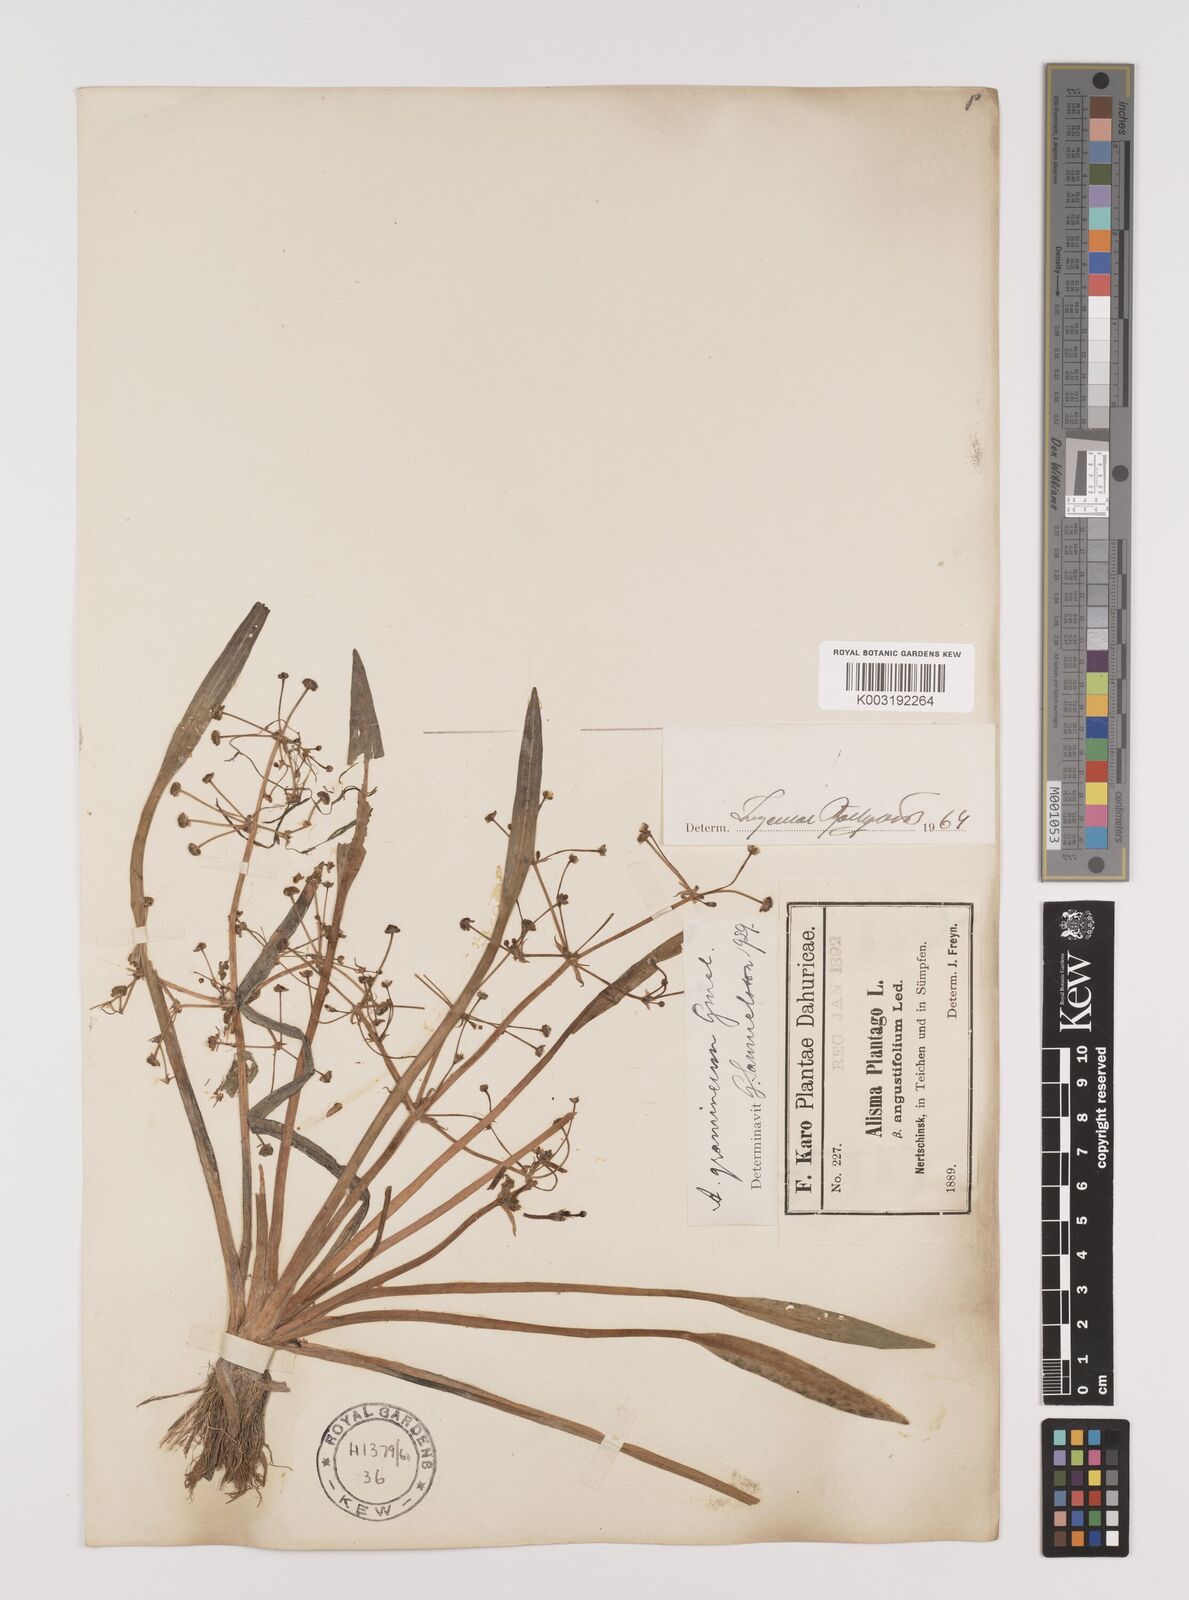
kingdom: Plantae
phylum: Tracheophyta
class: Liliopsida
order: Alismatales
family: Alismataceae
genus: Alisma
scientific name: Alisma gramineum
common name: Ribbon-leaved water-plantain
